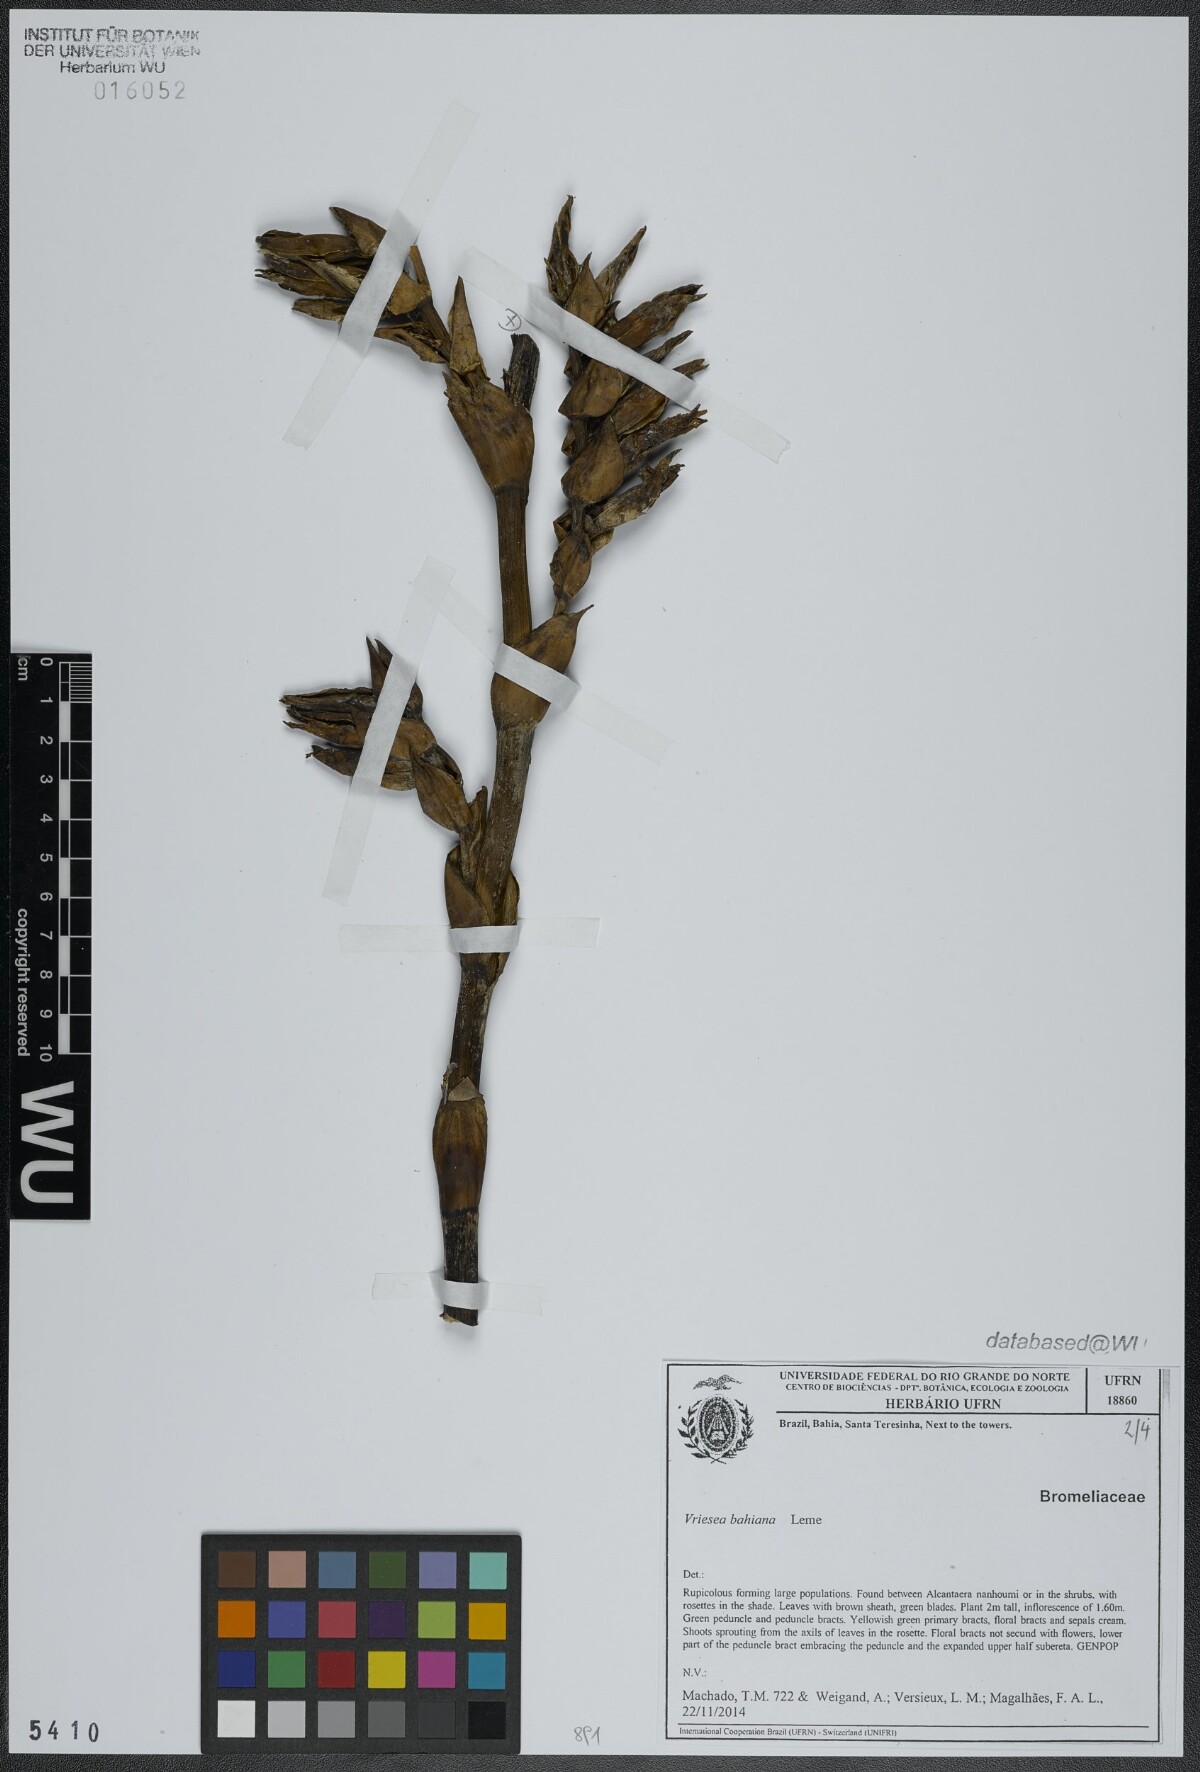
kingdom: Plantae
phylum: Tracheophyta
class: Liliopsida
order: Poales
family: Bromeliaceae
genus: Vriesea
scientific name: Vriesea bahiana
